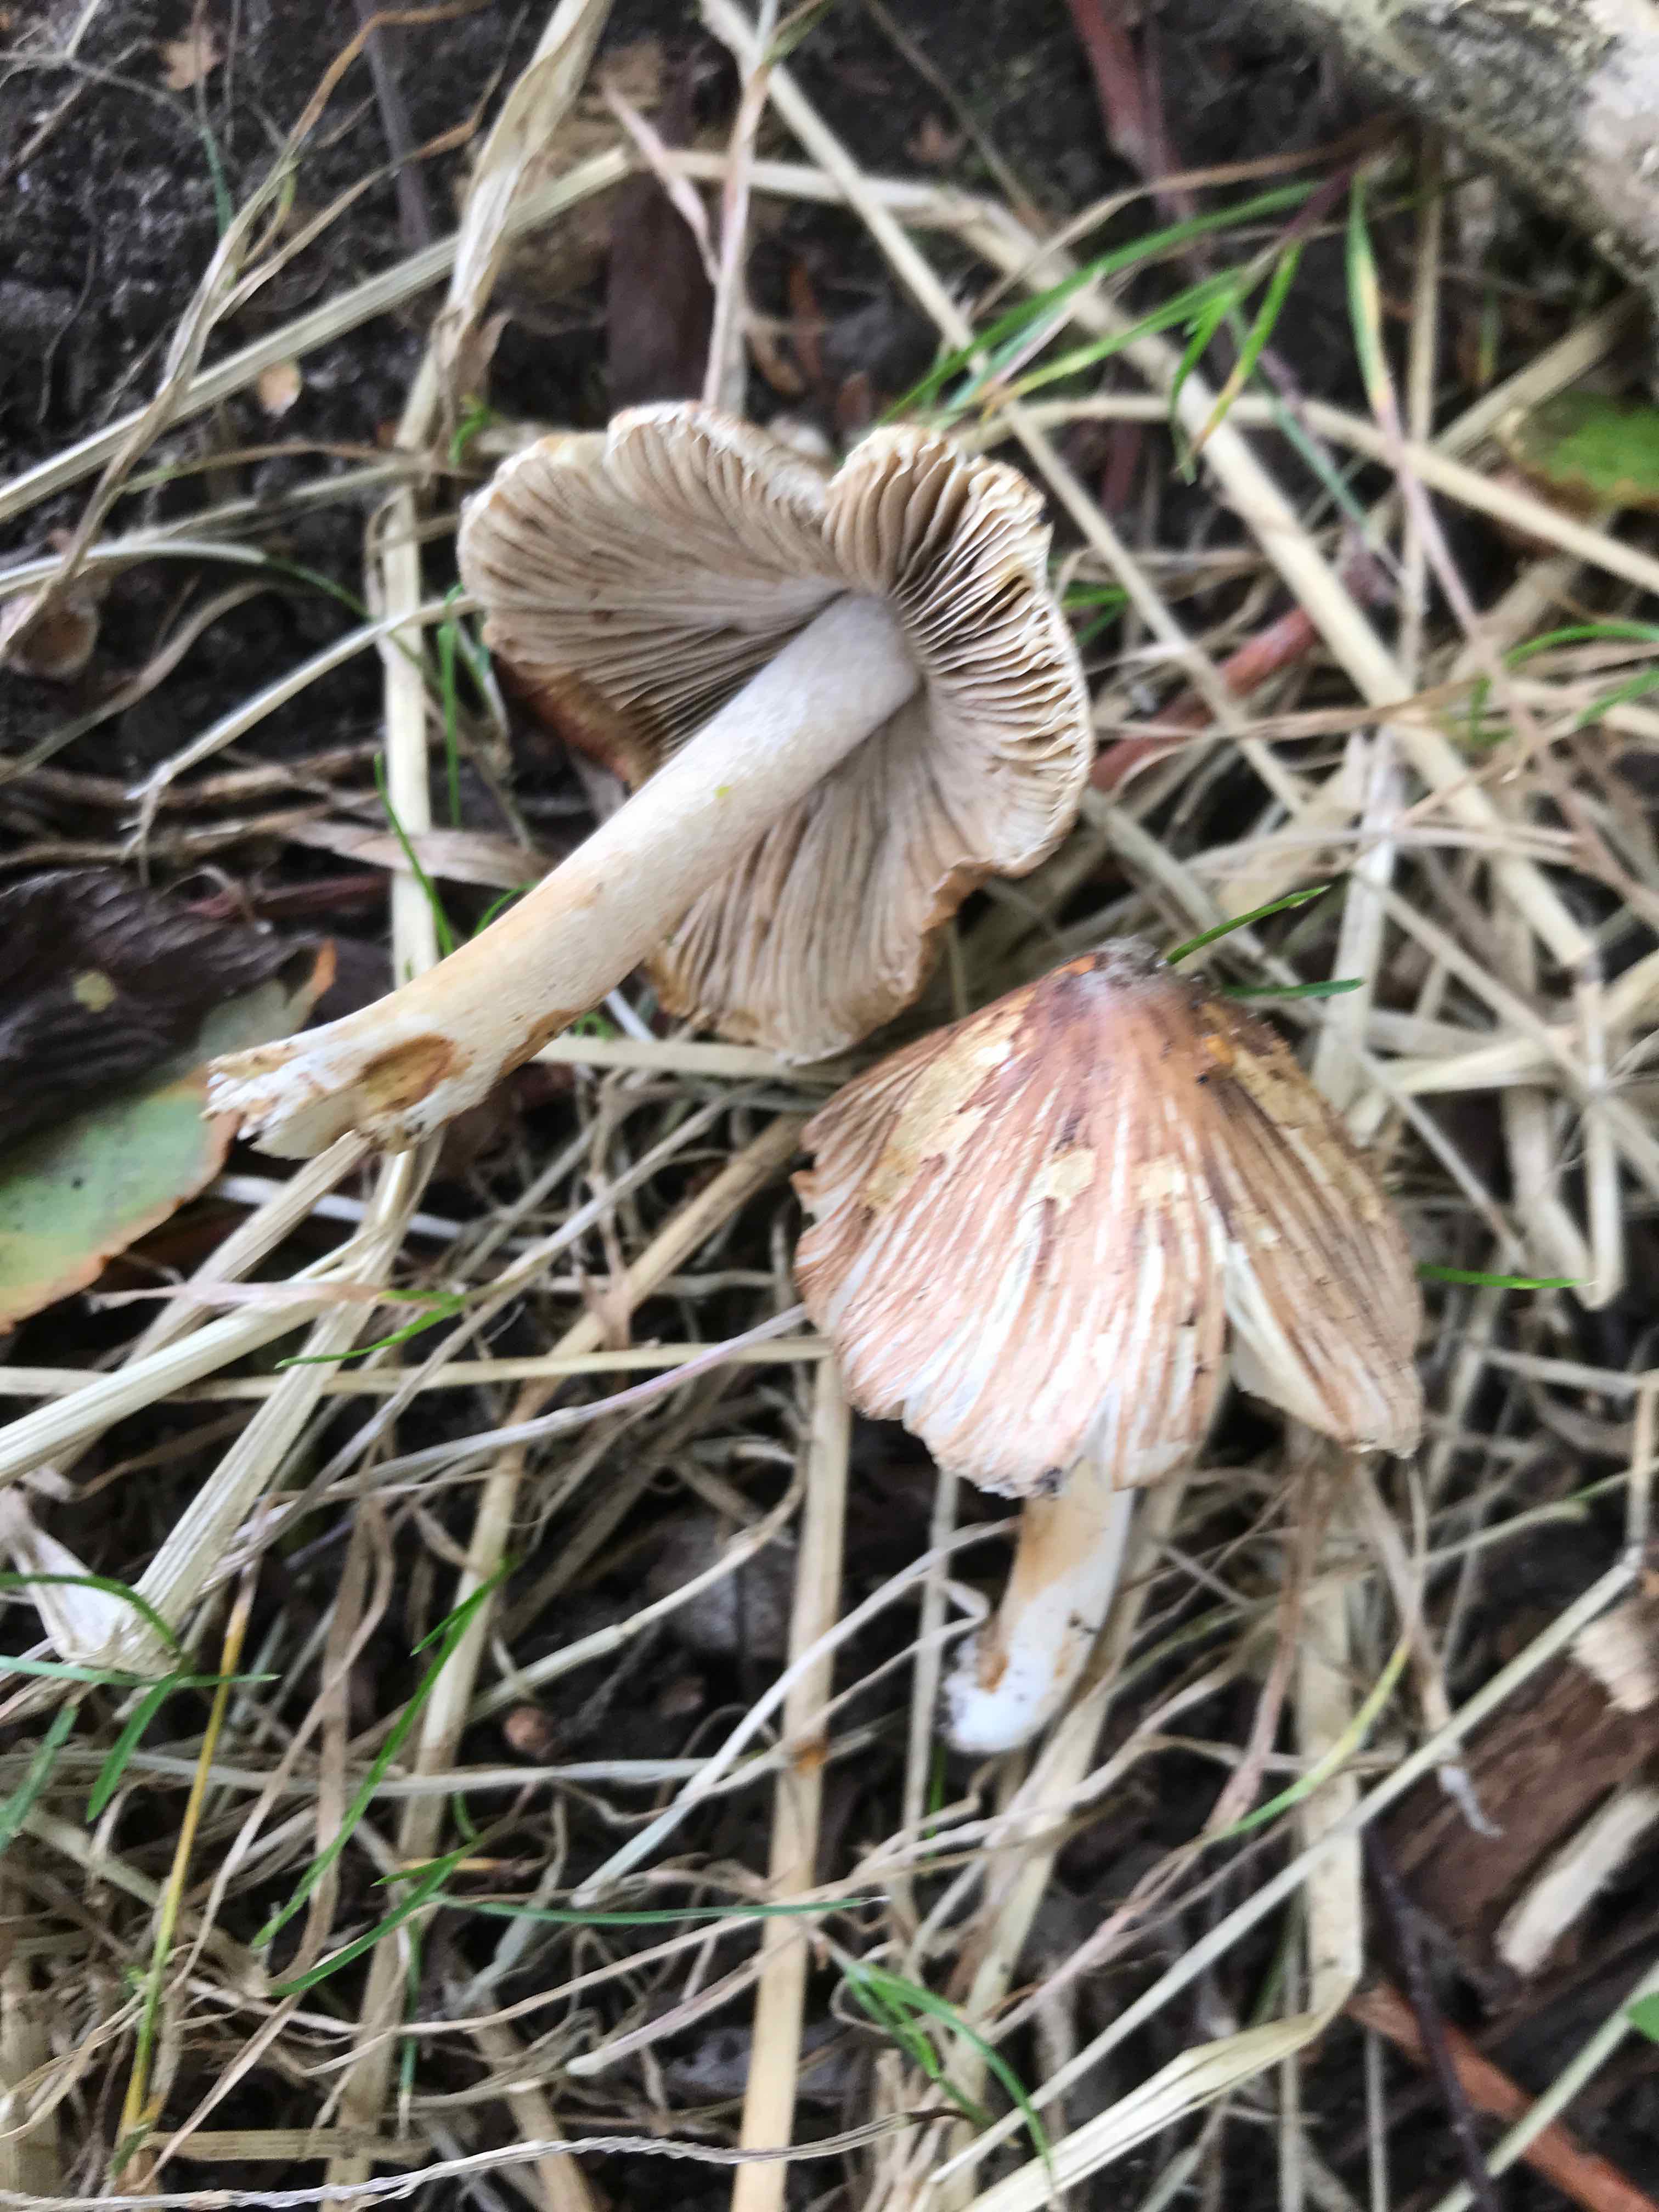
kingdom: Fungi
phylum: Basidiomycota
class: Agaricomycetes
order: Agaricales
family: Inocybaceae
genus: Pseudosperma
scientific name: Pseudosperma melliolens
